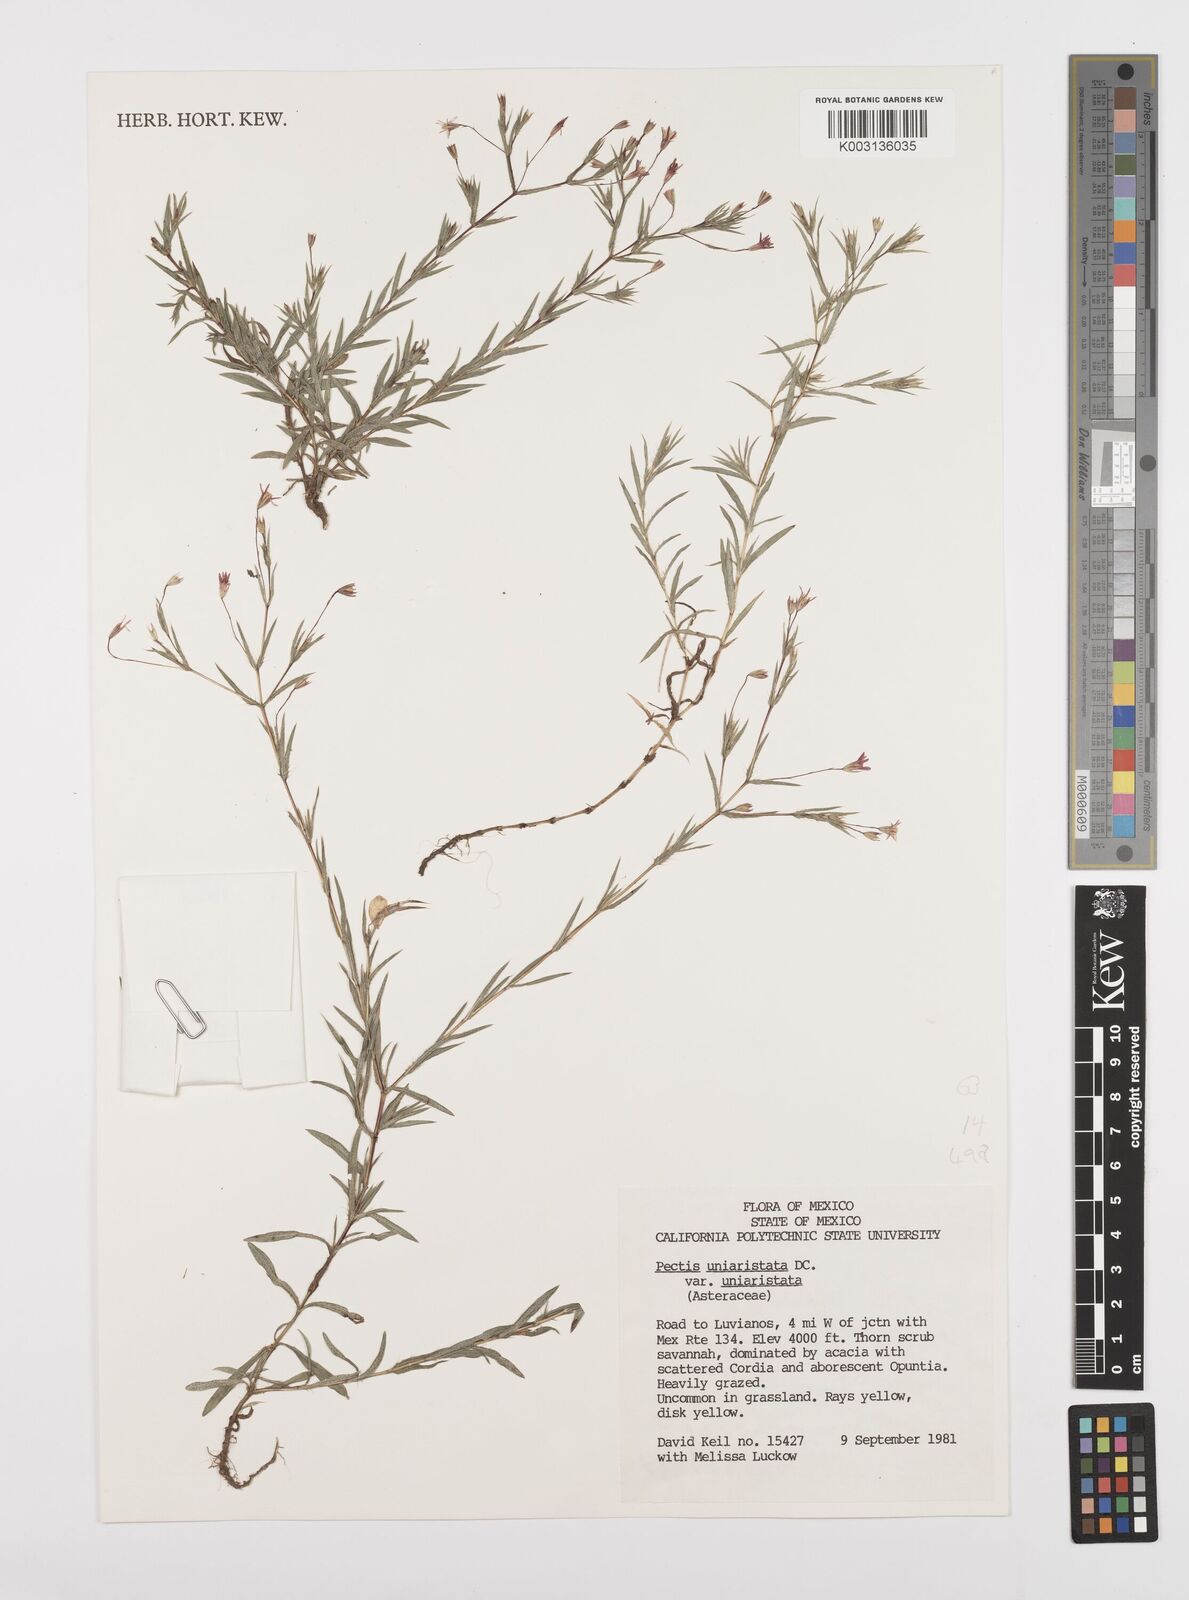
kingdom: Plantae
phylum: Tracheophyta
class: Magnoliopsida
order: Asterales
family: Asteraceae
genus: Pectis
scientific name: Pectis uniaristata
